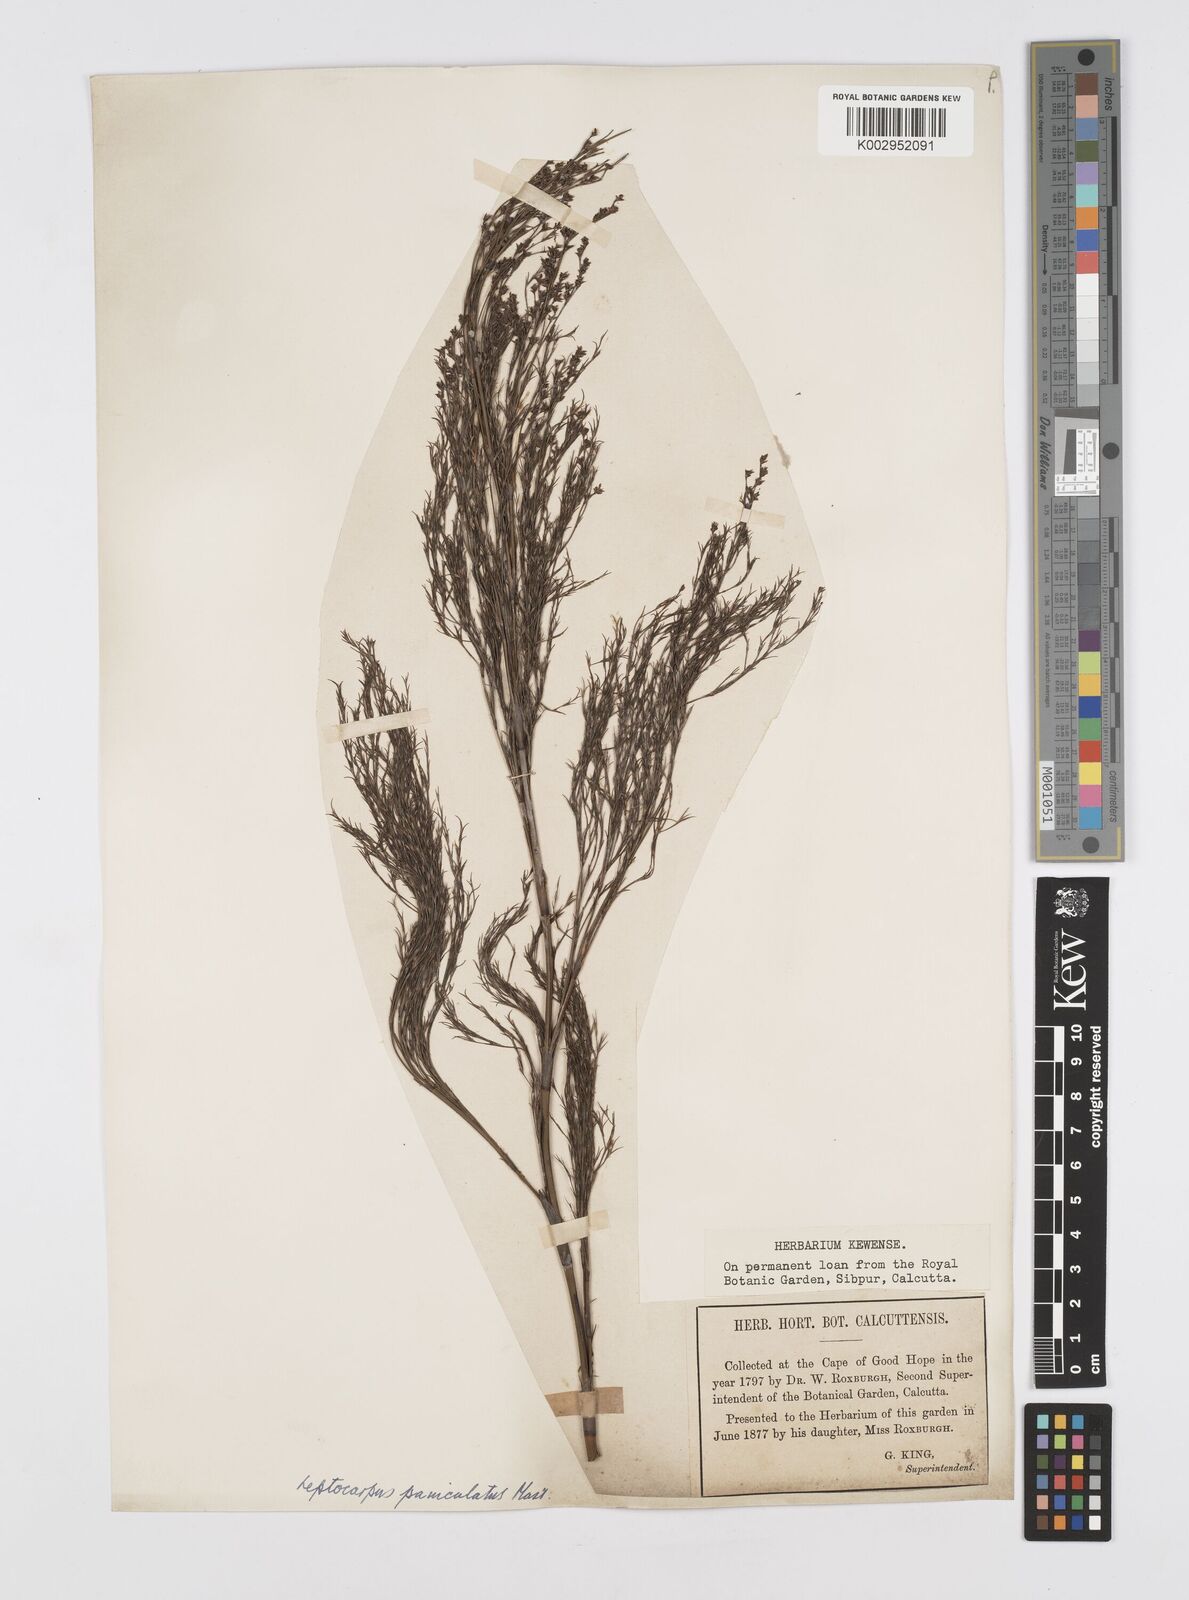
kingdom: Plantae
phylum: Tracheophyta
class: Liliopsida
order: Poales
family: Restionaceae
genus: Restio
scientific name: Restio paniculatus
